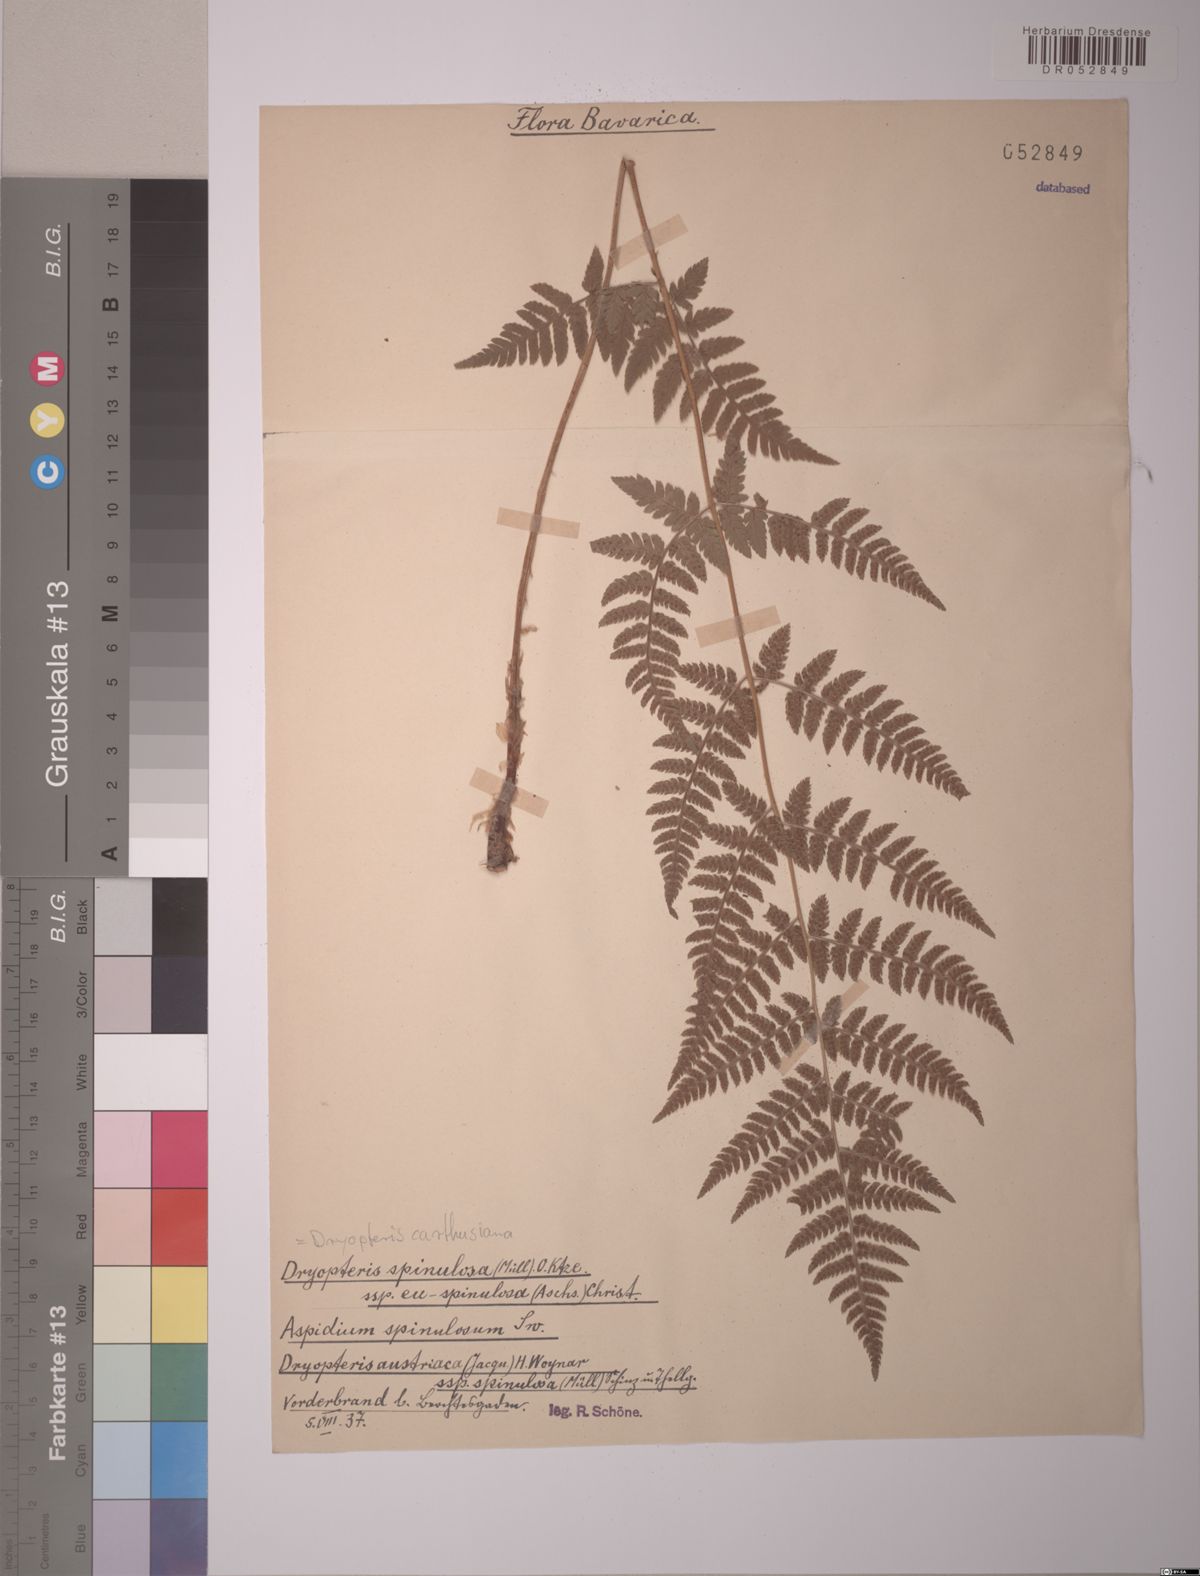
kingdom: Plantae
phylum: Tracheophyta
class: Polypodiopsida
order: Polypodiales
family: Dryopteridaceae
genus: Dryopteris
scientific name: Dryopteris carthusiana
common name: Narrow buckler-fern
